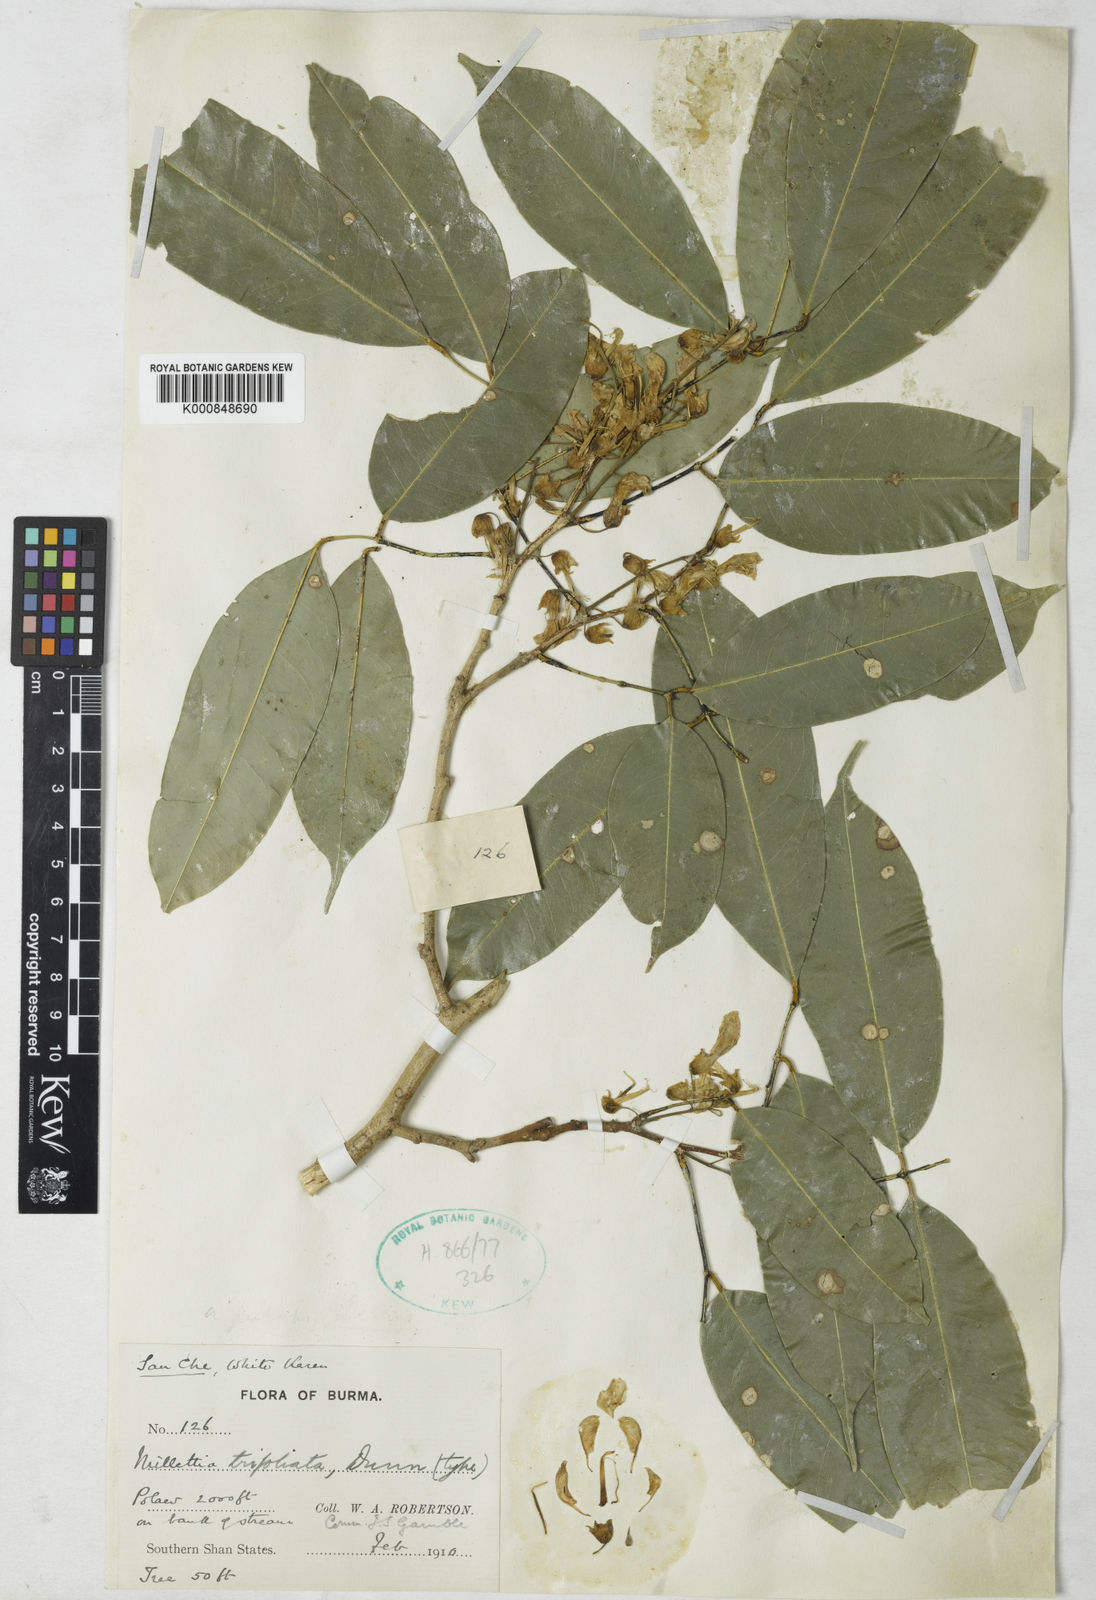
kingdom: Plantae
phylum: Tracheophyta
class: Magnoliopsida
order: Fabales
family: Fabaceae
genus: Millettia
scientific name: Millettia trifoliata
